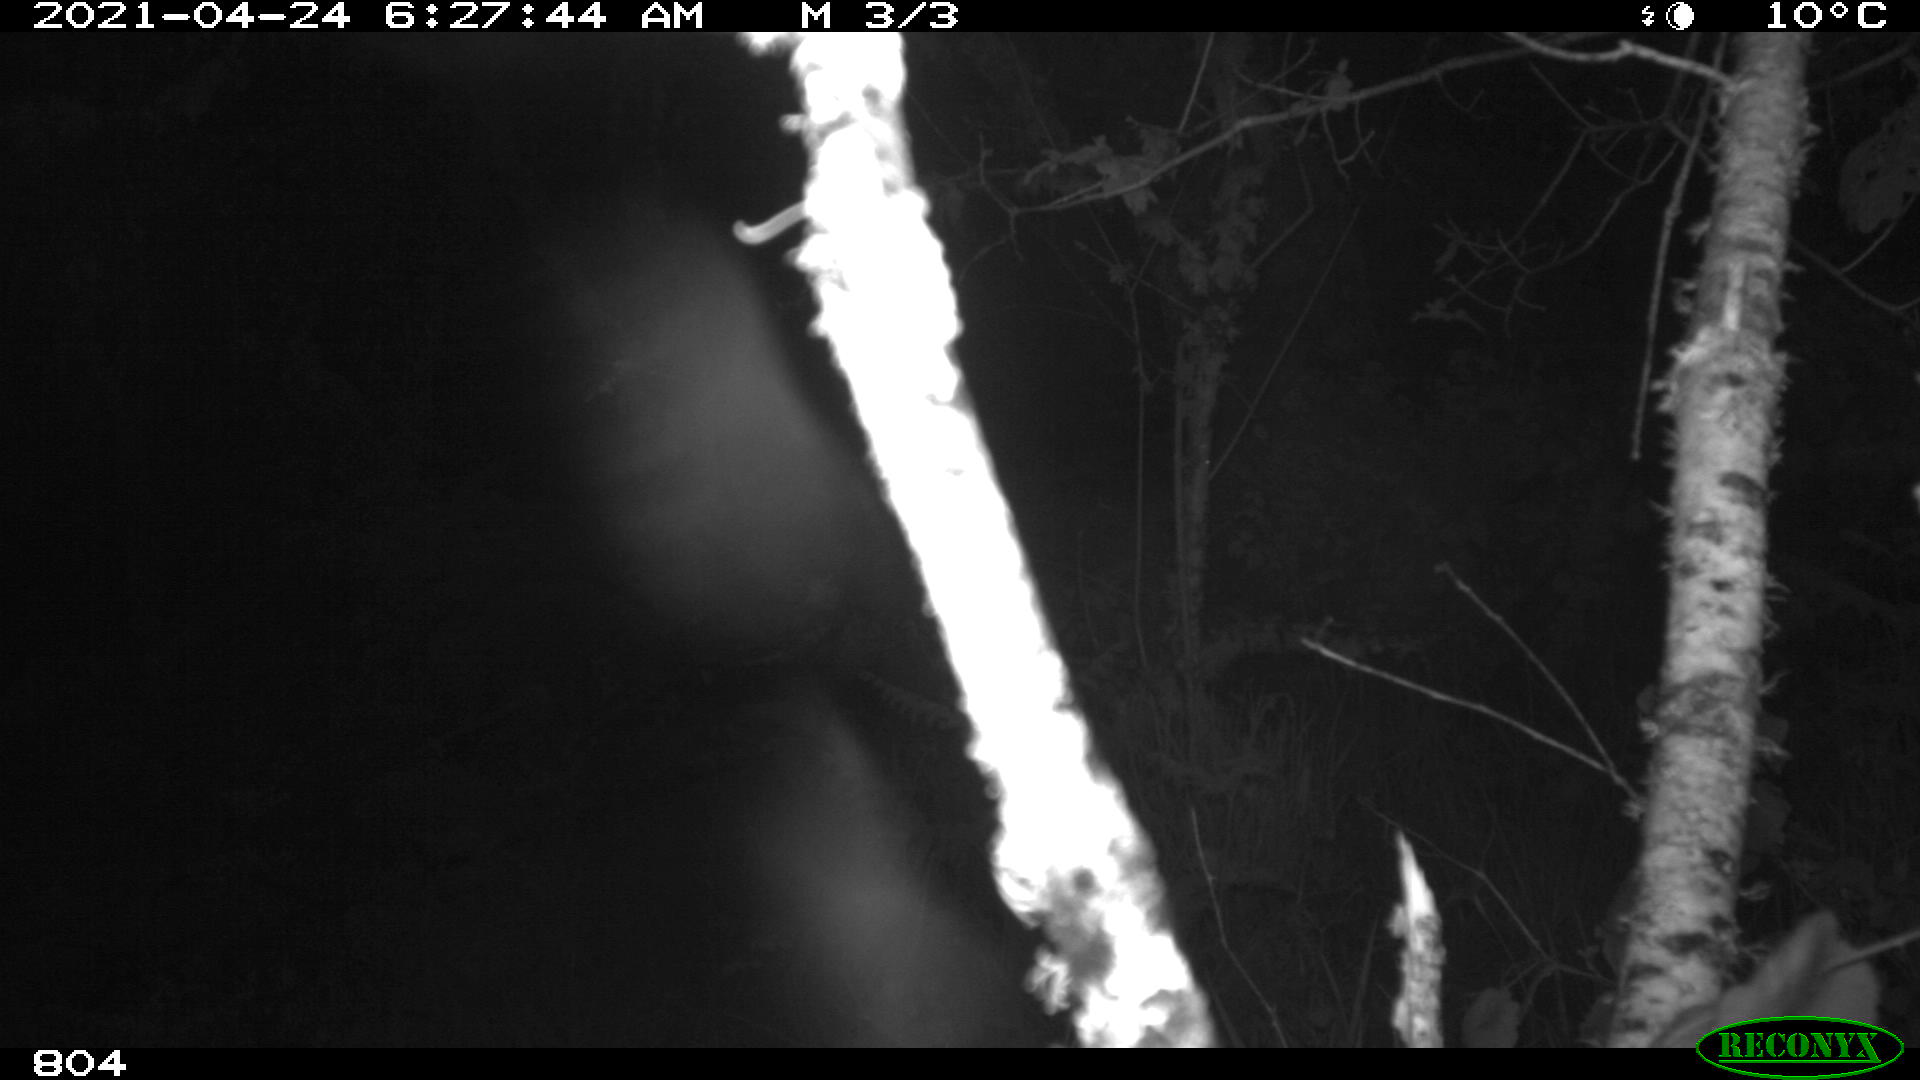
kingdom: Animalia
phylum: Chordata
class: Mammalia
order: Artiodactyla
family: Cervidae
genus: Capreolus
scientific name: Capreolus capreolus
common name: Western roe deer
